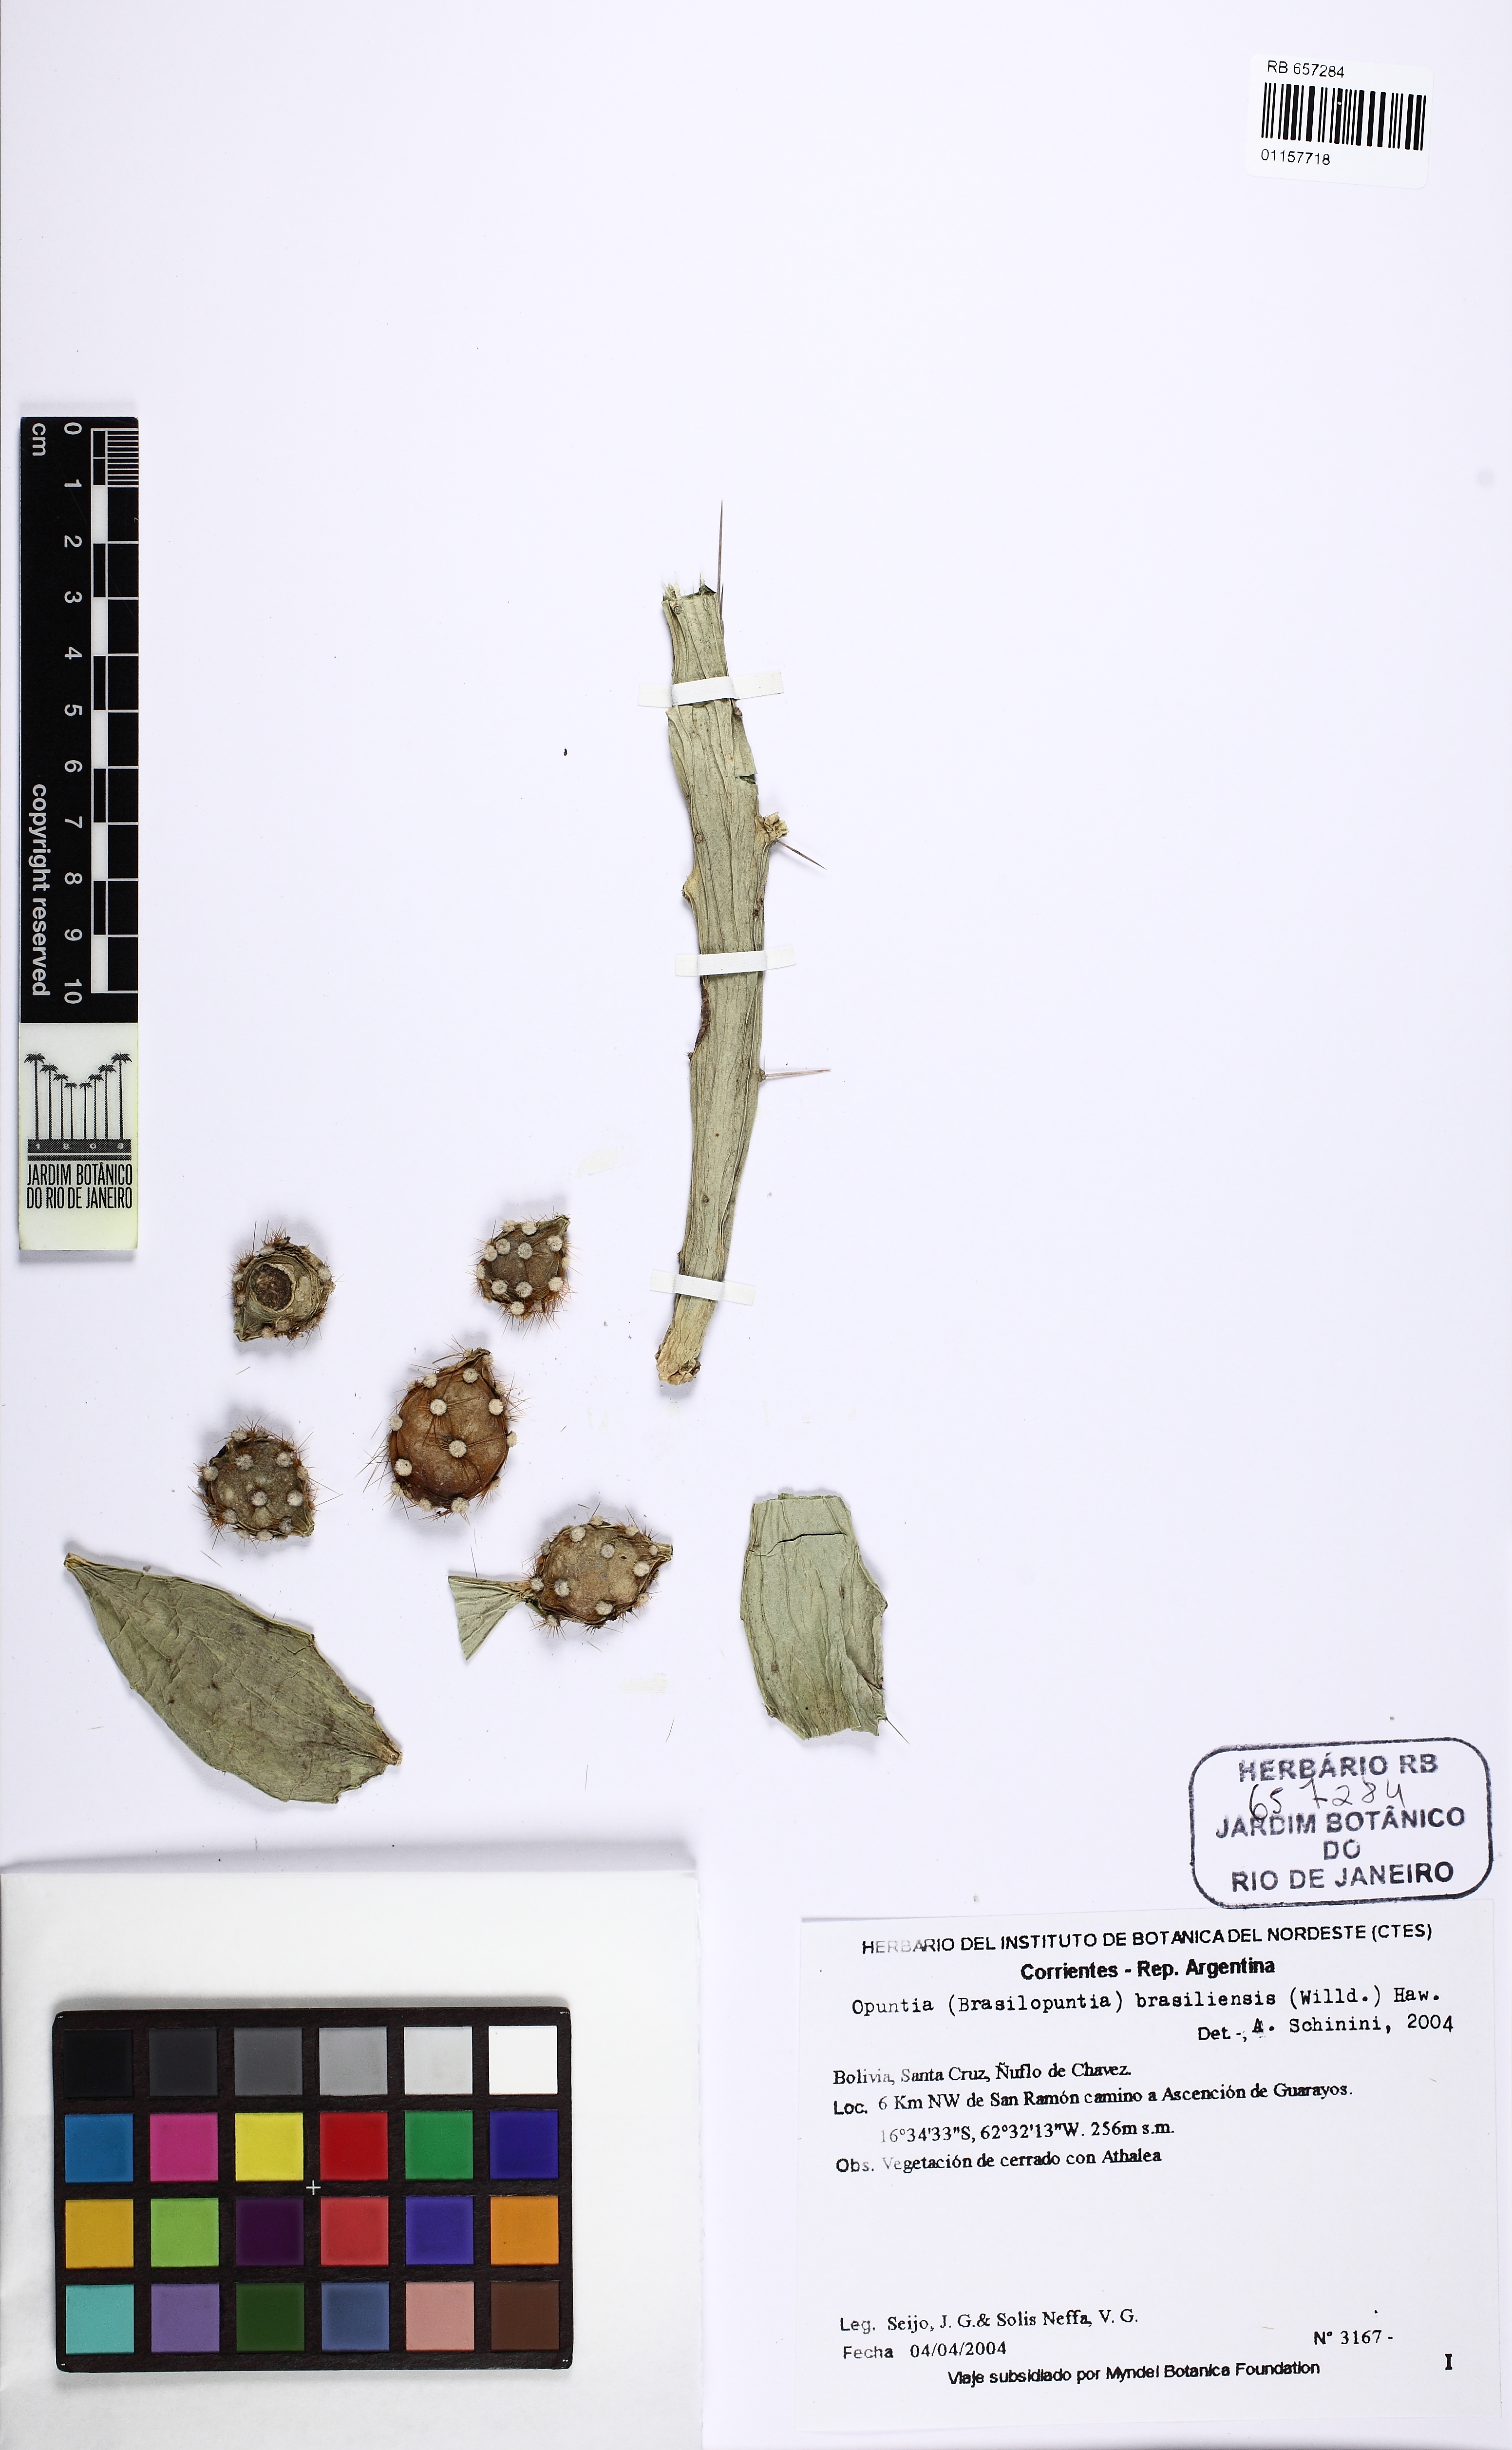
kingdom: Plantae
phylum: Tracheophyta
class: Magnoliopsida
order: Caryophyllales
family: Cactaceae
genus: Brasiliopuntia
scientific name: Brasiliopuntia brasiliensis
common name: Brazilian pricklypear
